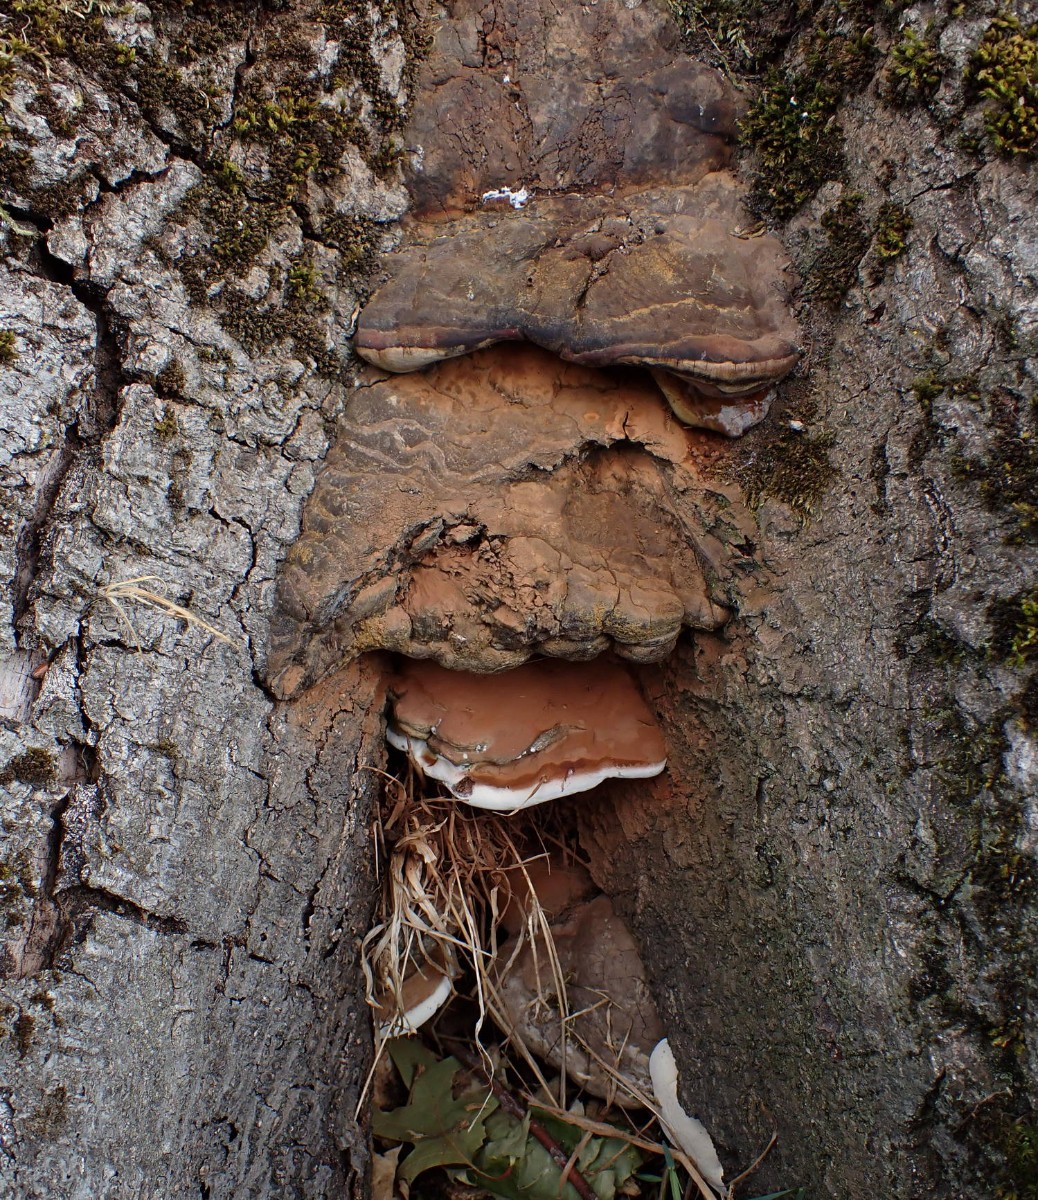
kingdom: Fungi
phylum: Basidiomycota
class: Agaricomycetes
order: Polyporales
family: Polyporaceae
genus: Ganoderma
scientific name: Ganoderma adspersum
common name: grov lakporesvamp
